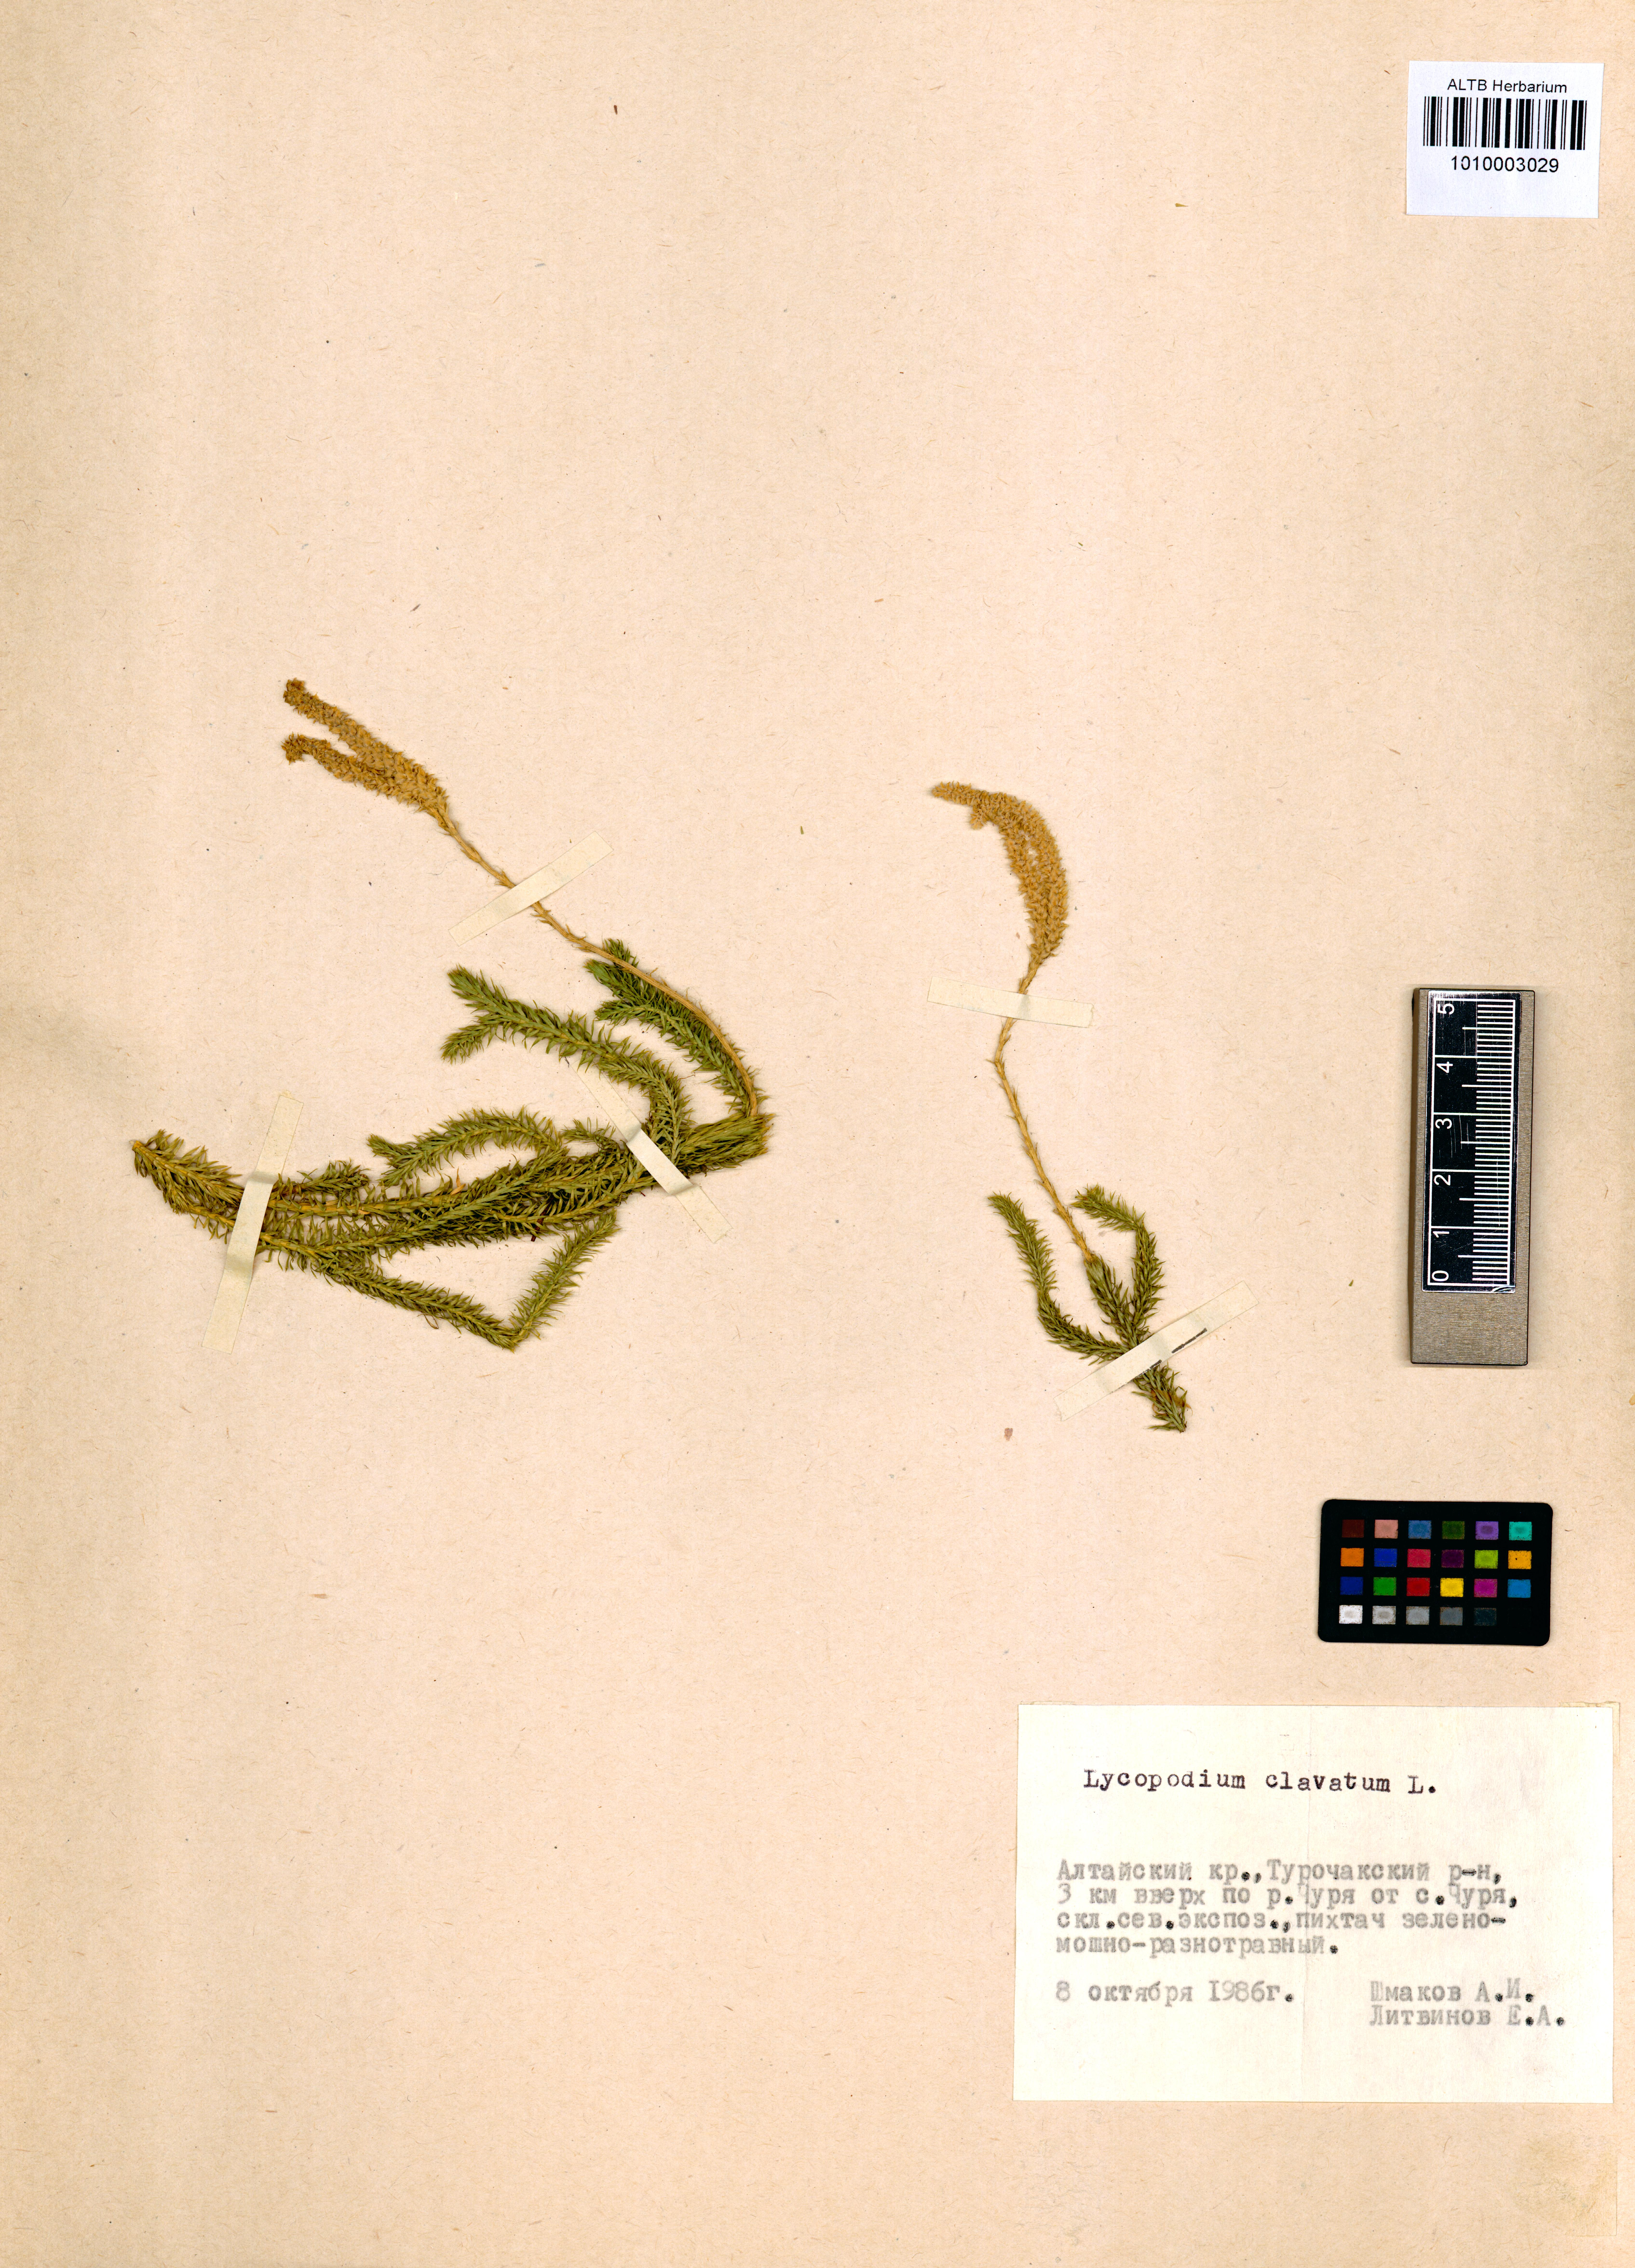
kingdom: Plantae
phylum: Tracheophyta
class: Lycopodiopsida
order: Lycopodiales
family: Lycopodiaceae
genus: Lycopodium
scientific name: Lycopodium clavatum
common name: Stag's-horn clubmoss
